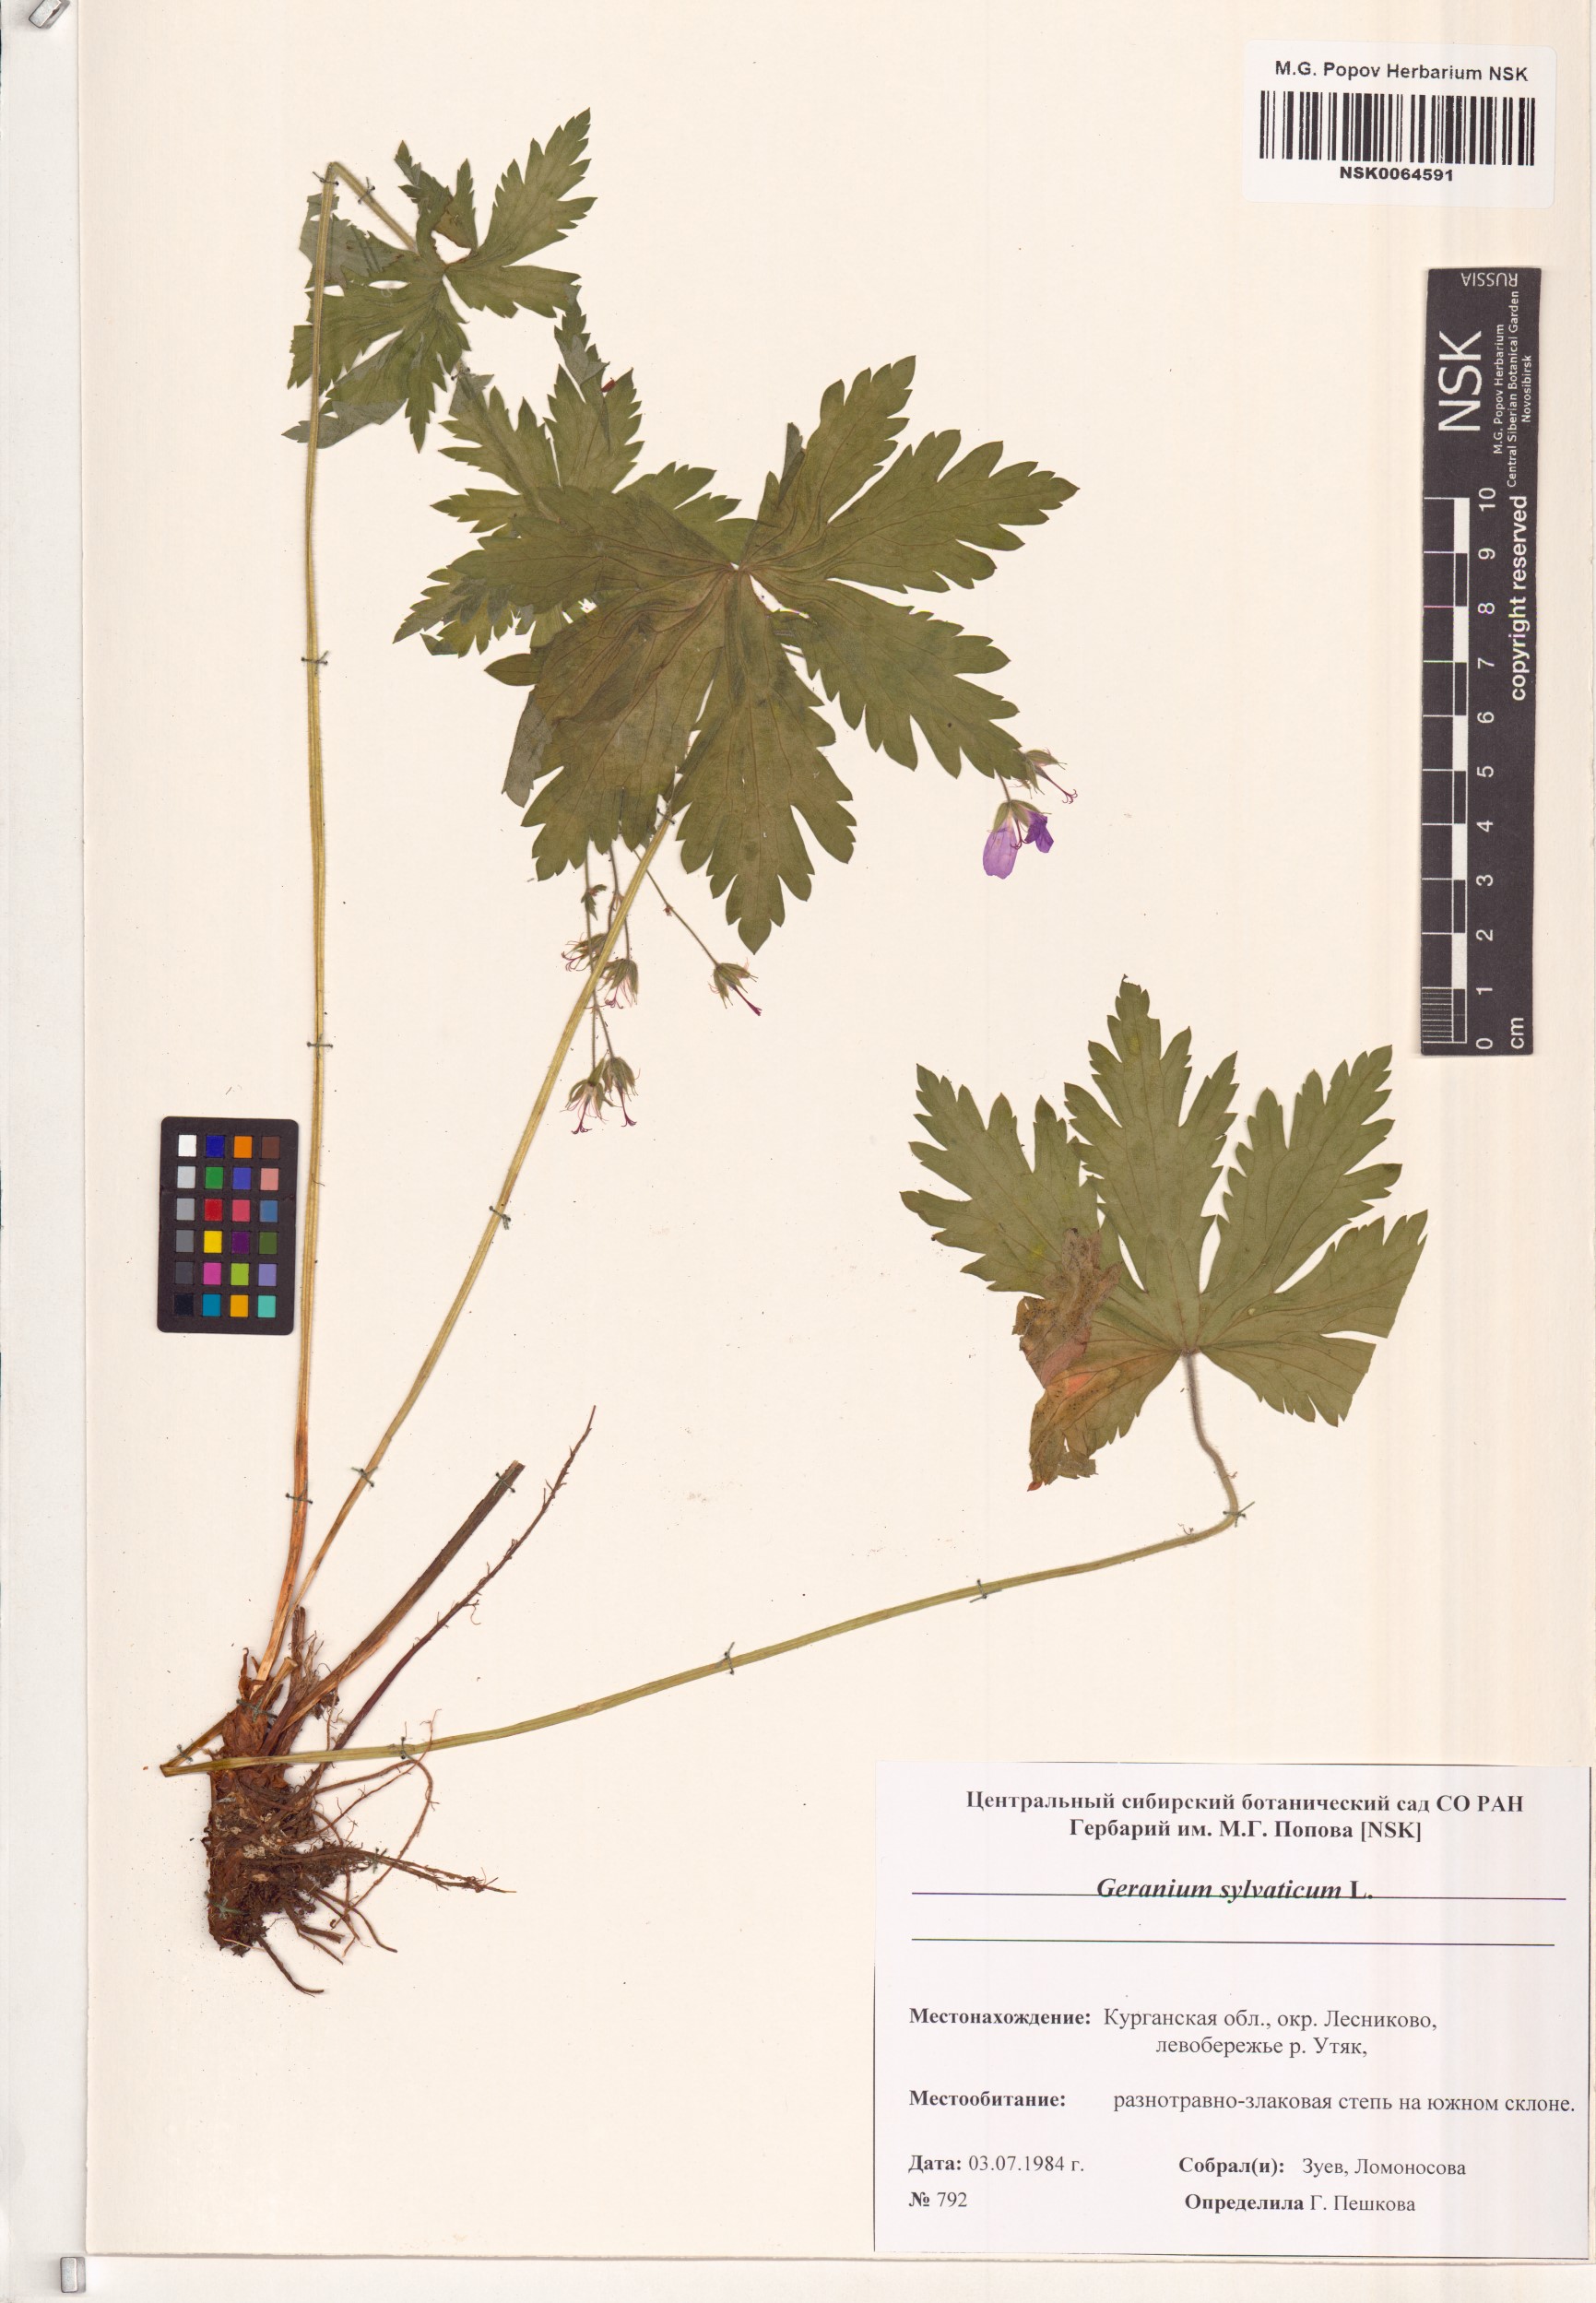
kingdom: Plantae
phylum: Tracheophyta
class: Magnoliopsida
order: Geraniales
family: Geraniaceae
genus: Geranium
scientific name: Geranium sylvaticum
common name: Wood crane's-bill
